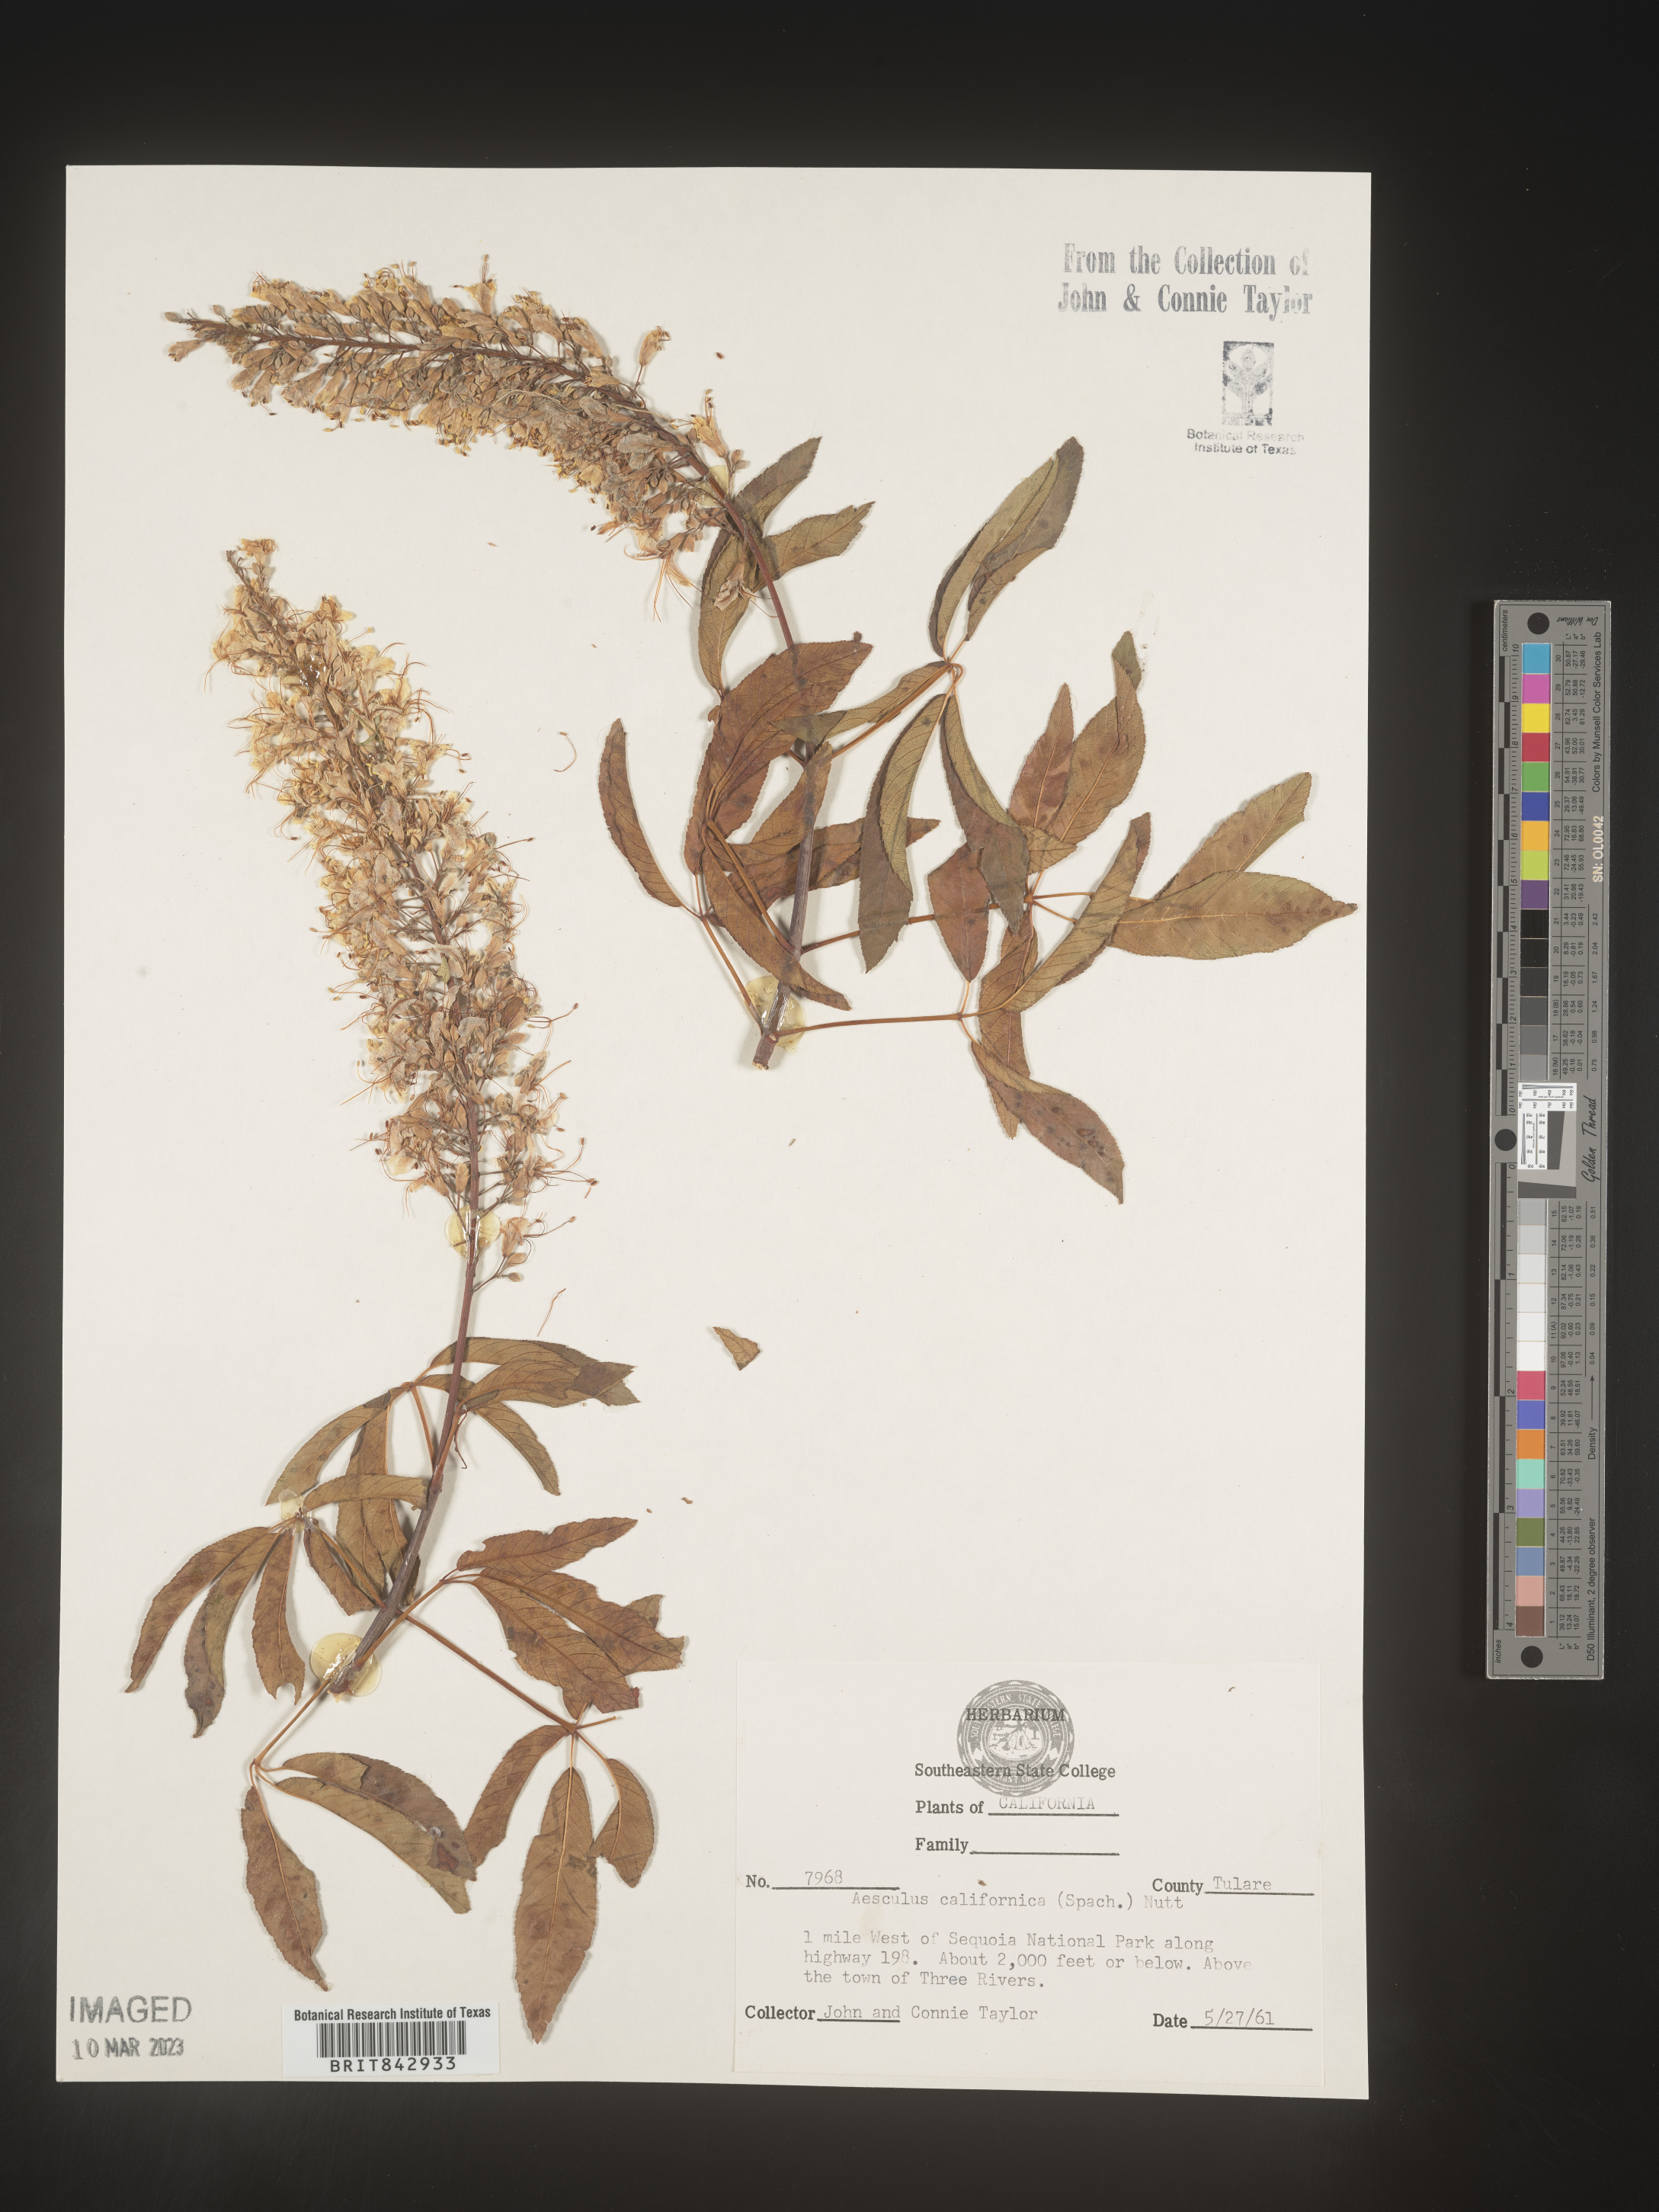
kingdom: Plantae
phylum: Tracheophyta
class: Magnoliopsida
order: Sapindales
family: Sapindaceae
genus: Aesculus
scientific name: Aesculus
